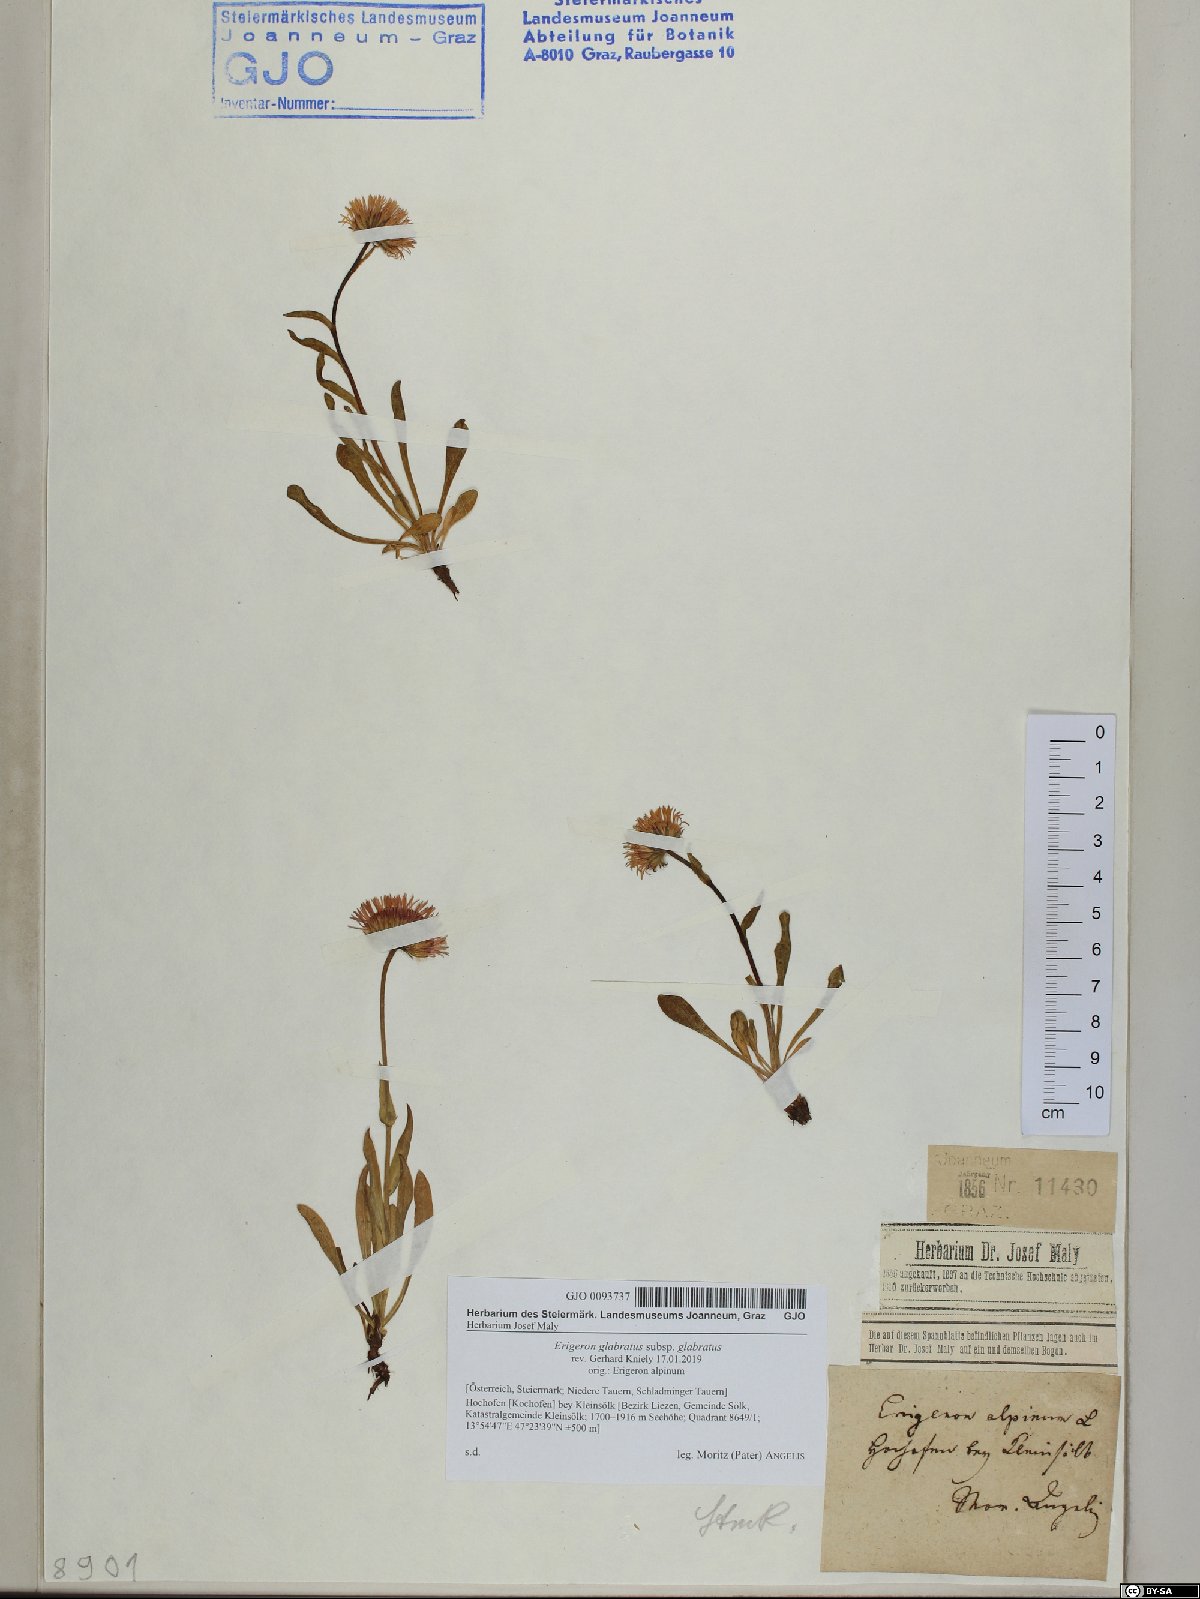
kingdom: Plantae
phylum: Tracheophyta
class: Magnoliopsida
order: Asterales
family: Asteraceae
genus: Erigeron
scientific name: Erigeron glabratus
